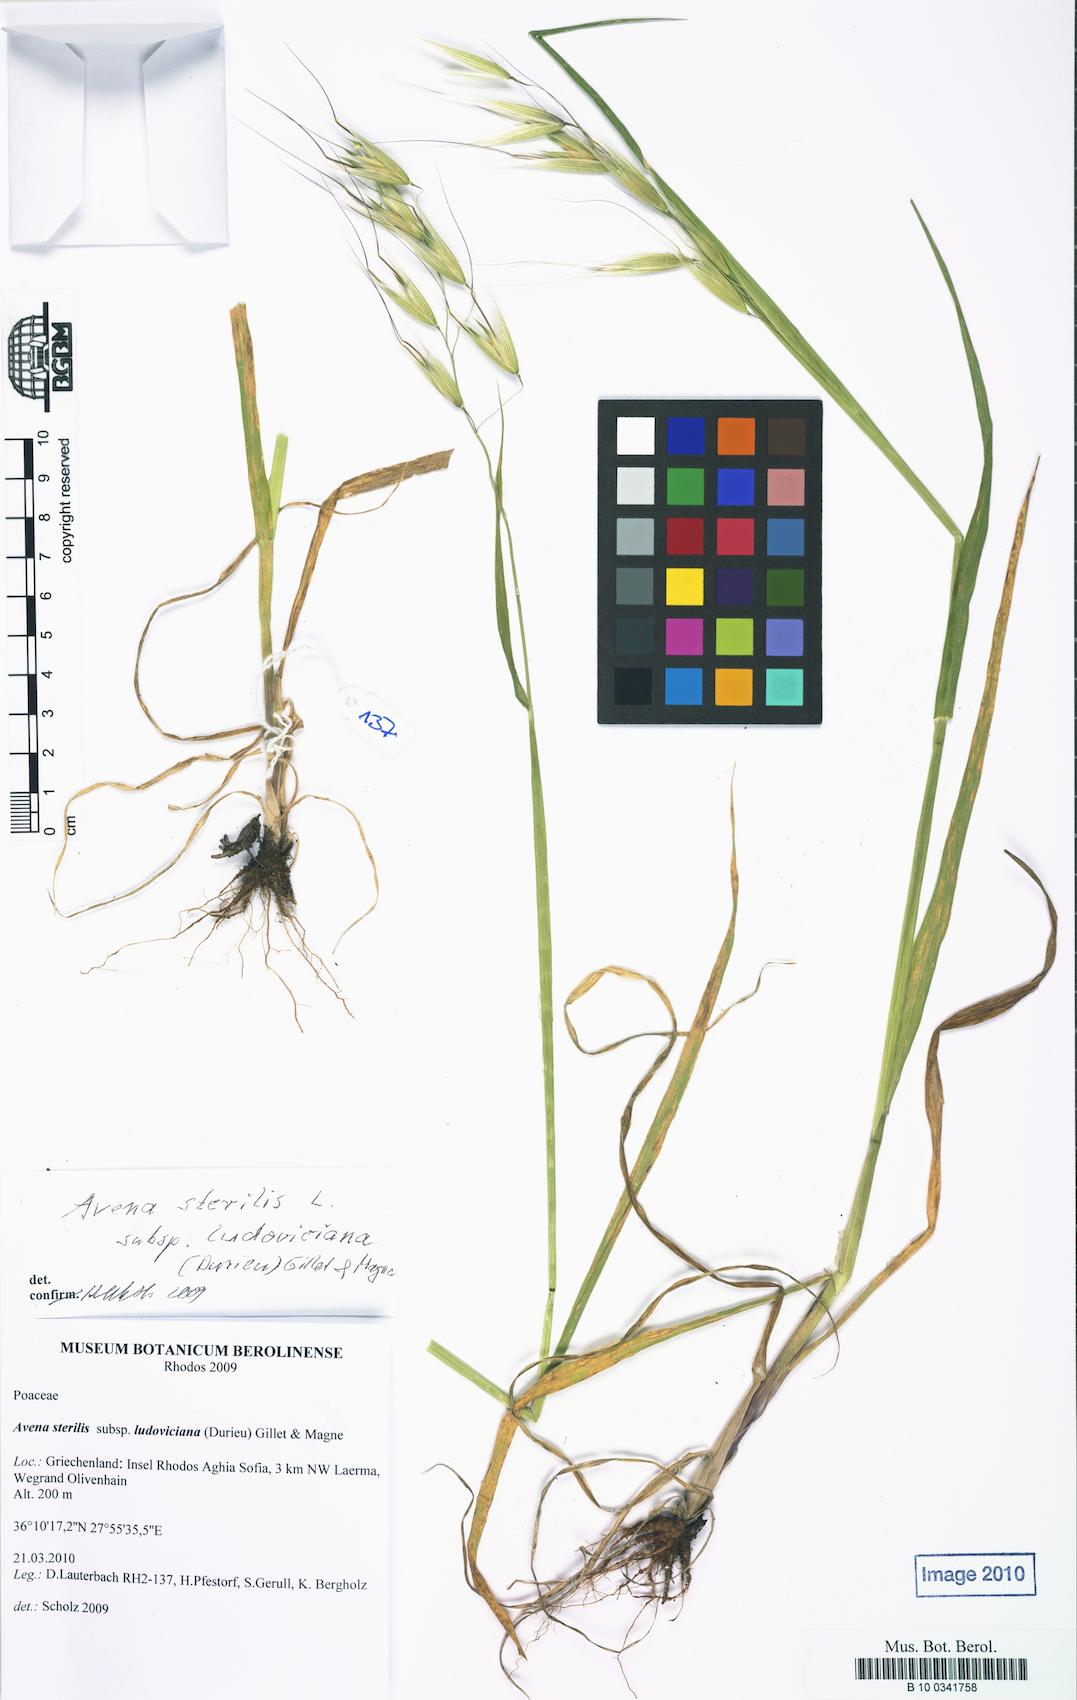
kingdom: Plantae
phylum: Tracheophyta
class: Liliopsida
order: Poales
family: Poaceae
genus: Avena
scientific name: Avena sterilis
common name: Animated oat
